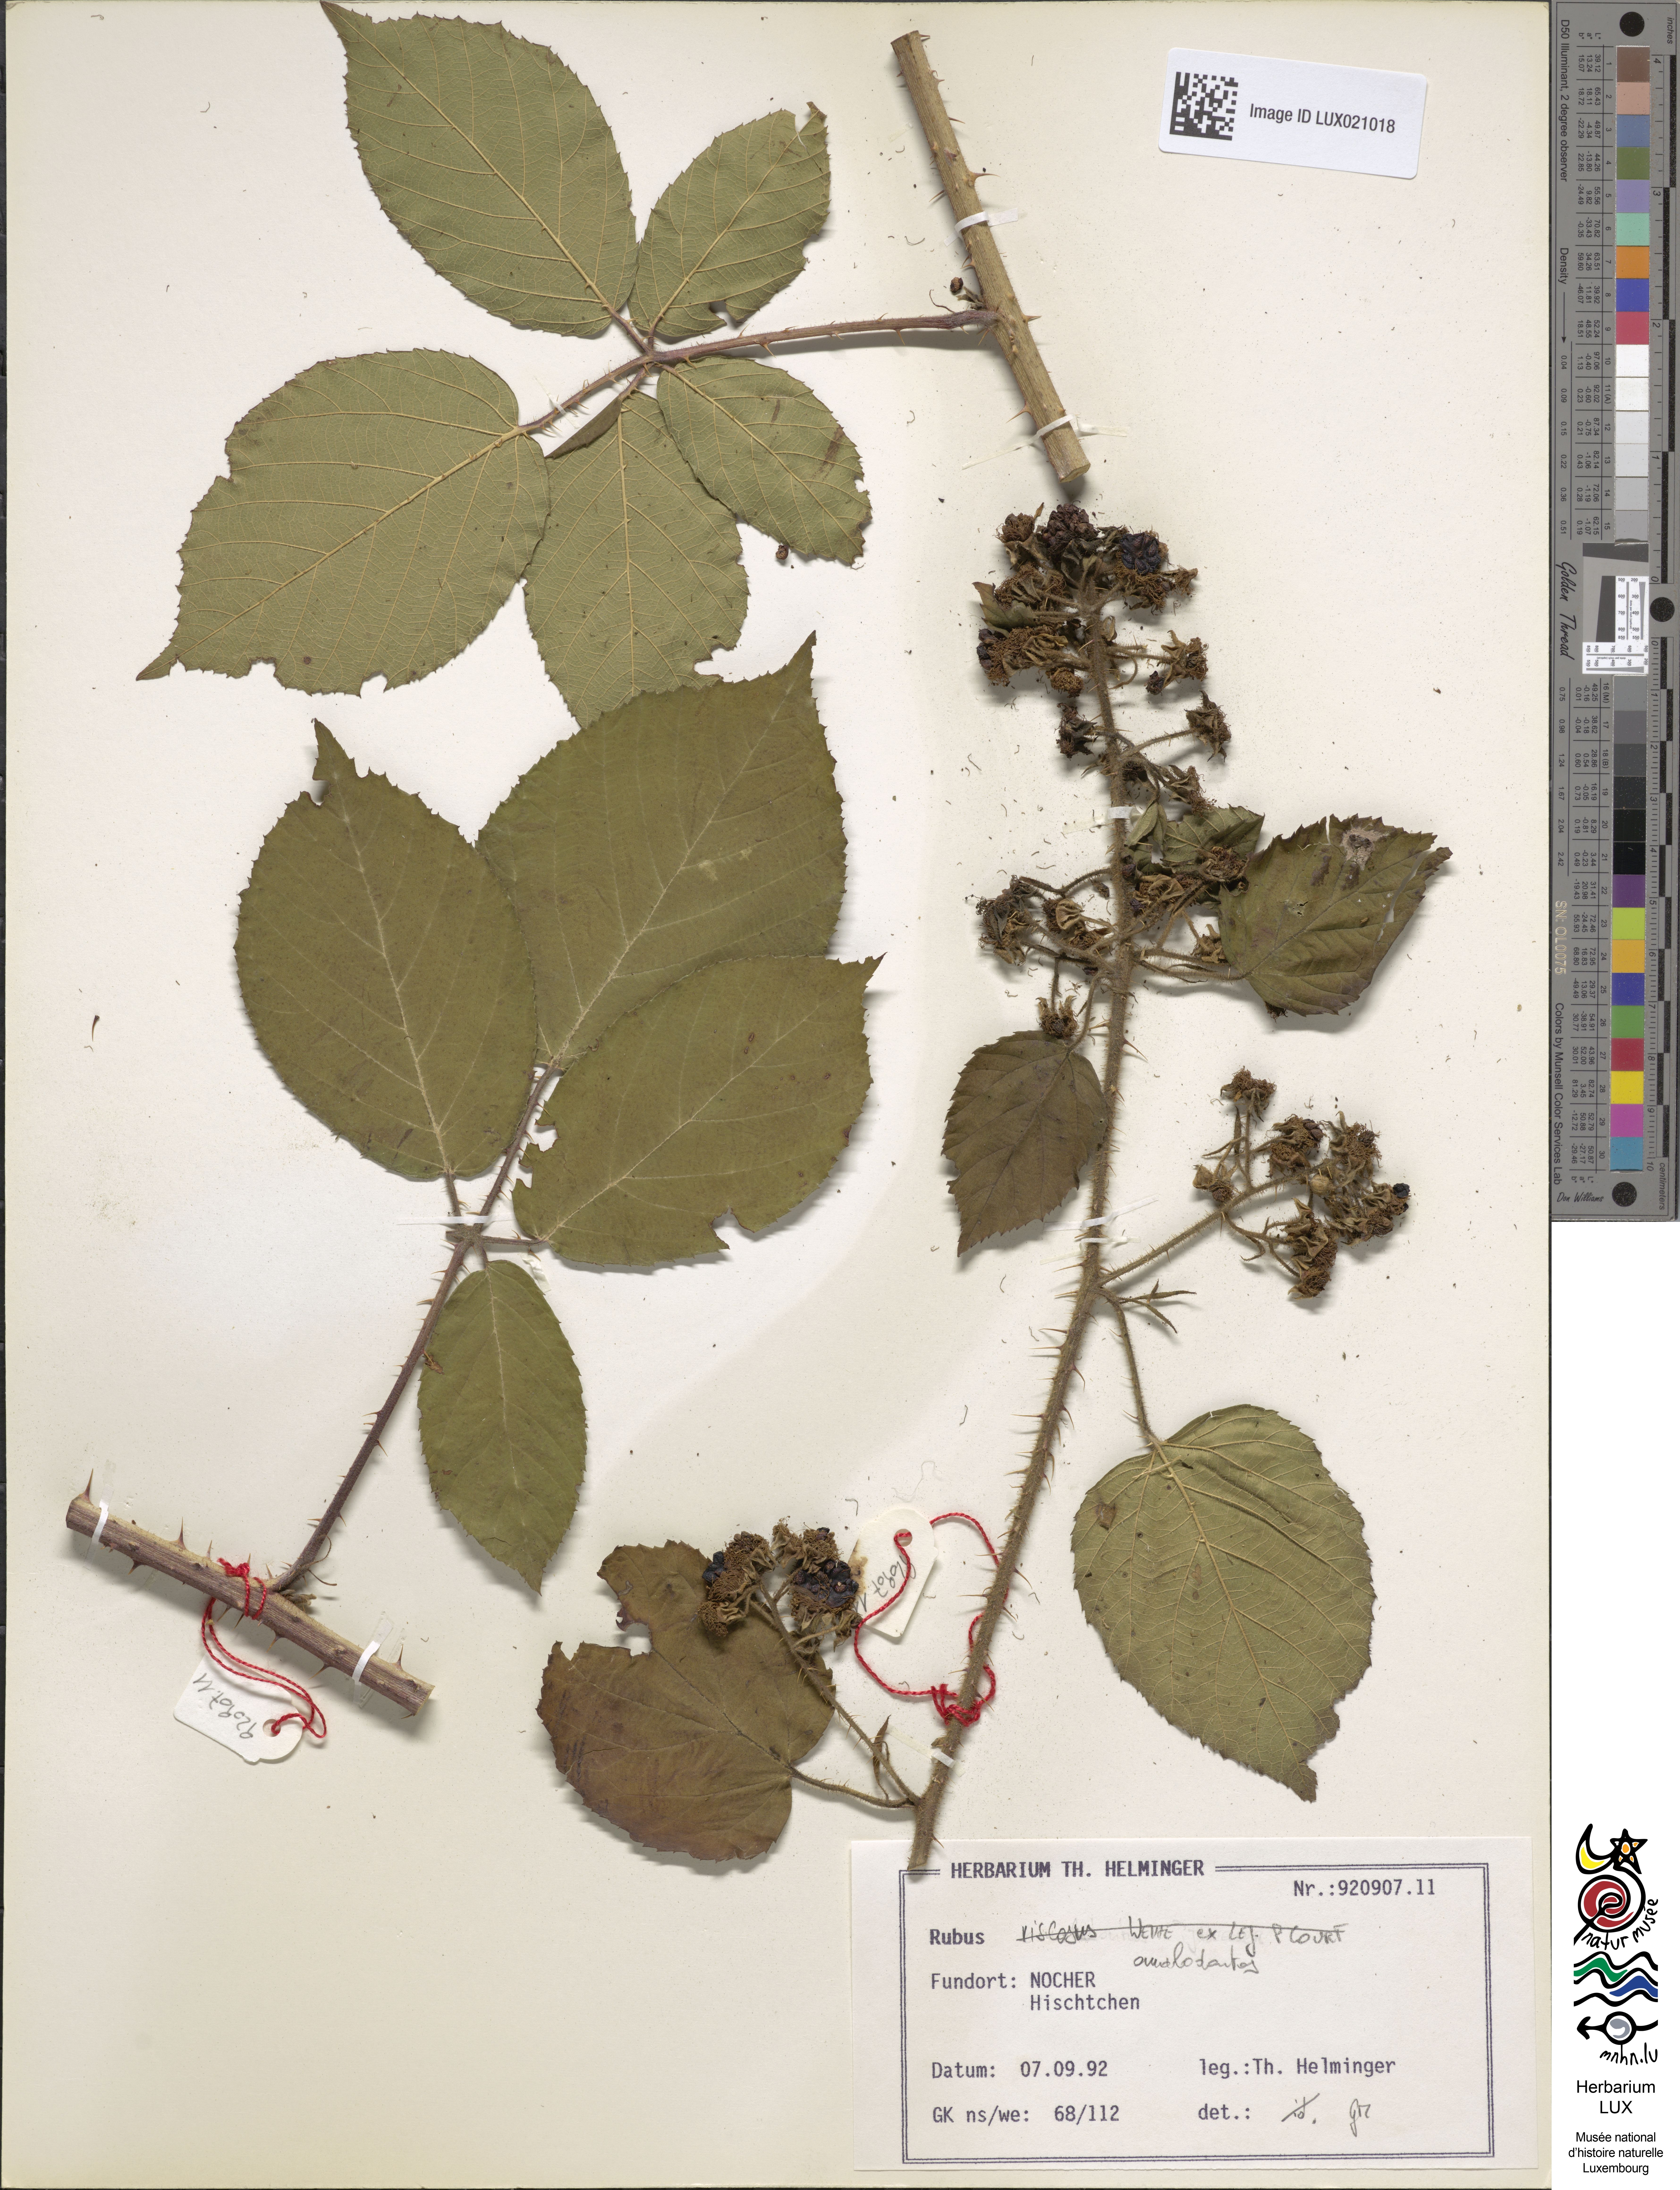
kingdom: Plantae
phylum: Tracheophyta
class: Magnoliopsida
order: Rosales
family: Rosaceae
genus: Rubus
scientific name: Rubus omalodontos
